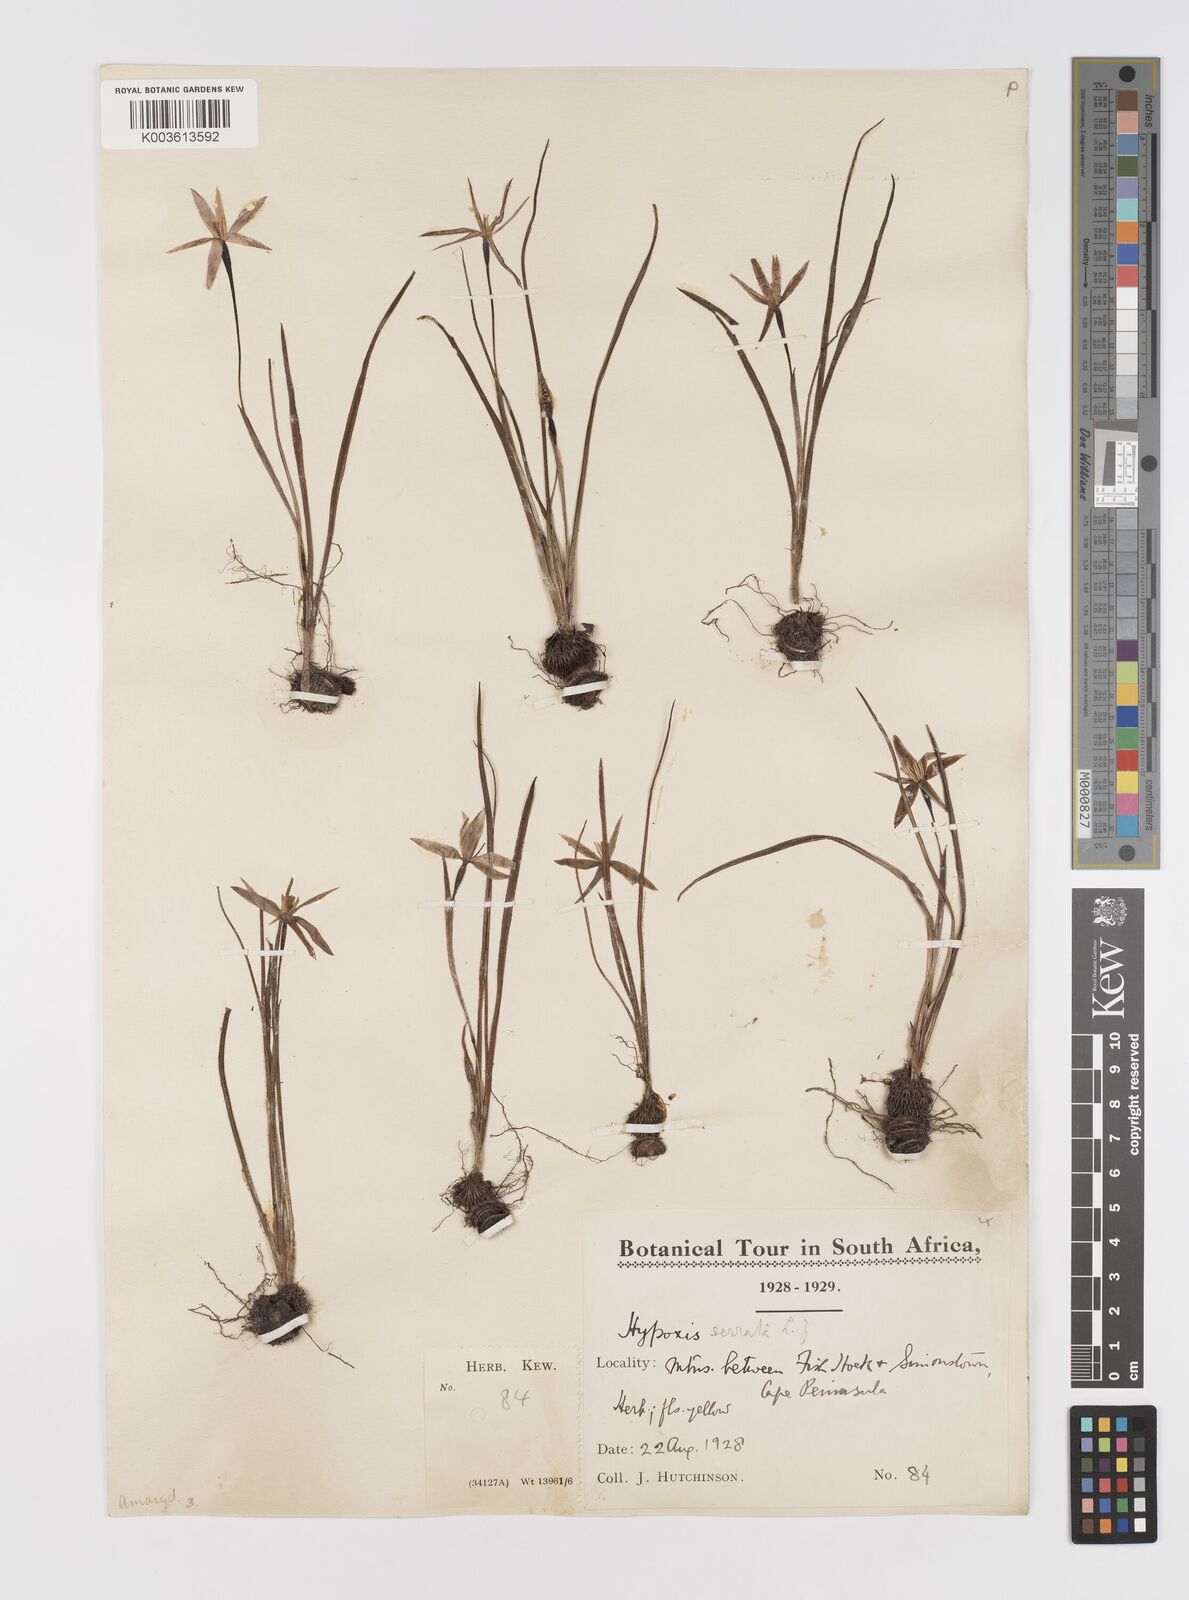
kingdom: Plantae
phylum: Tracheophyta
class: Liliopsida
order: Asparagales
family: Hypoxidaceae
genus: Pauridia
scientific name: Pauridia serrata
